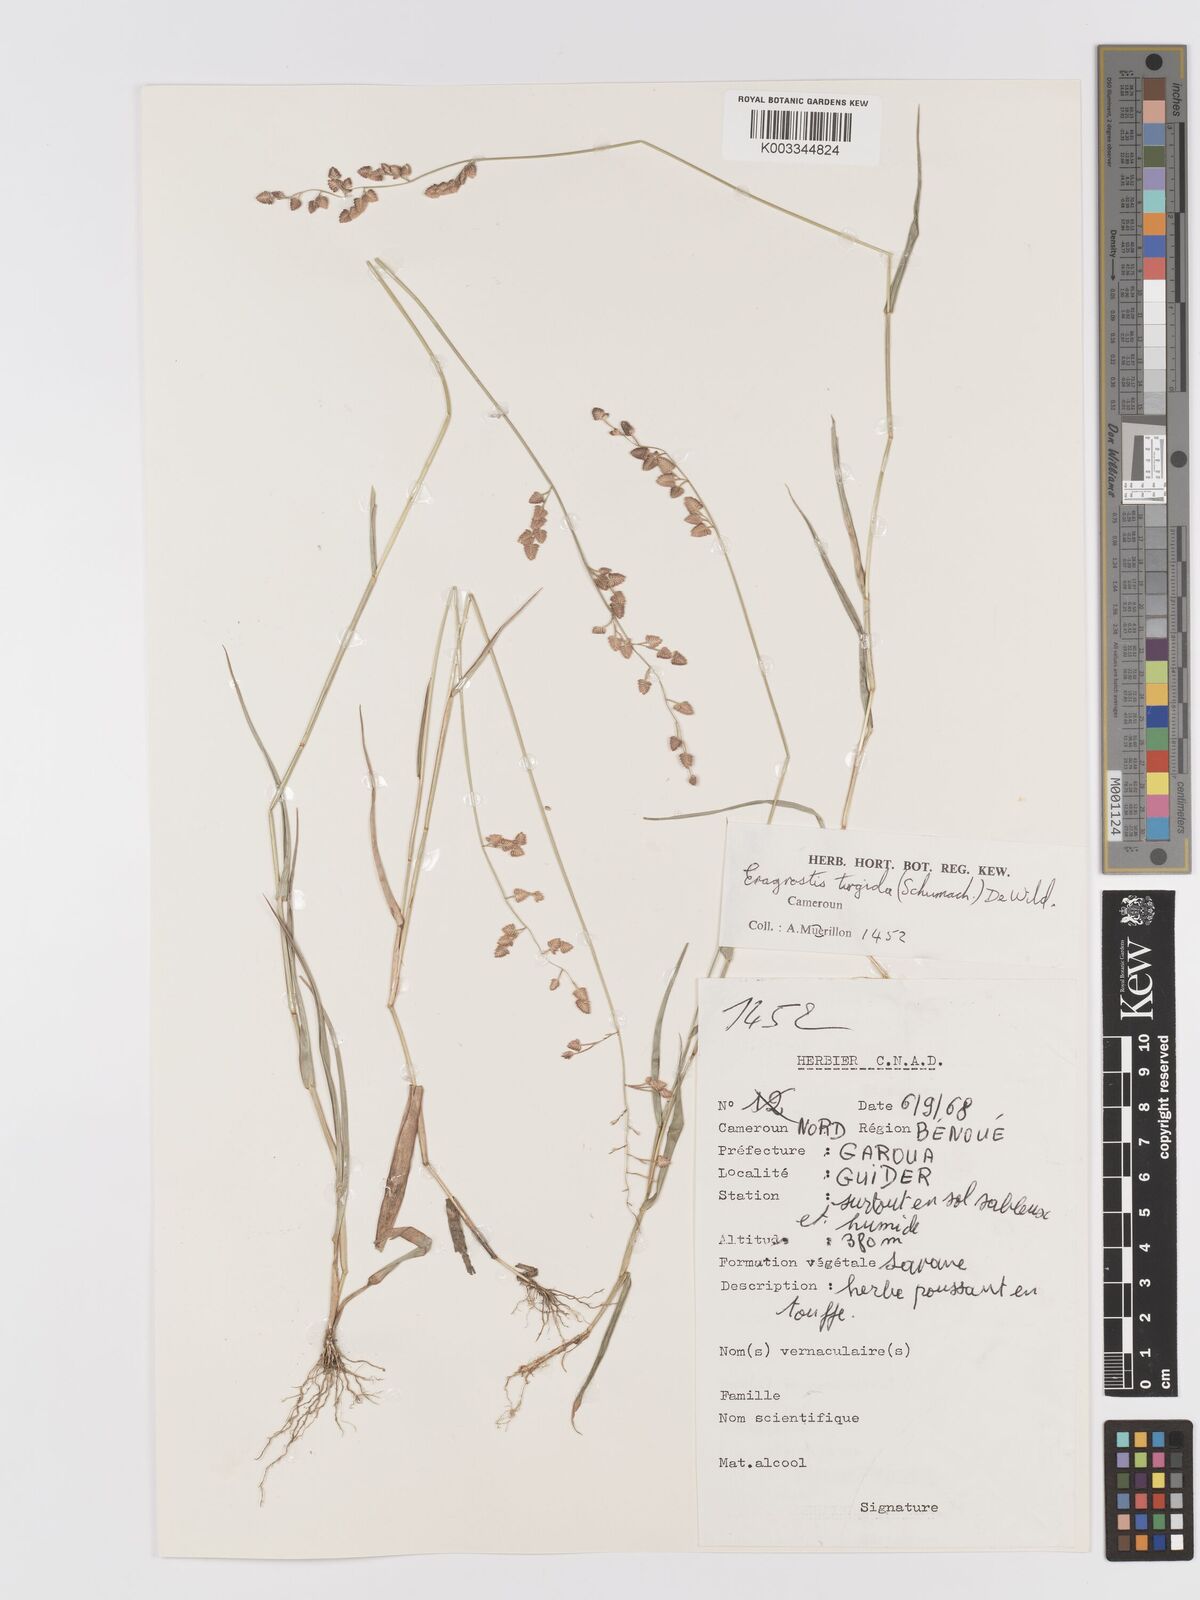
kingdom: Plantae
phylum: Tracheophyta
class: Liliopsida
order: Poales
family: Poaceae
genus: Eragrostis
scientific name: Eragrostis turgida
